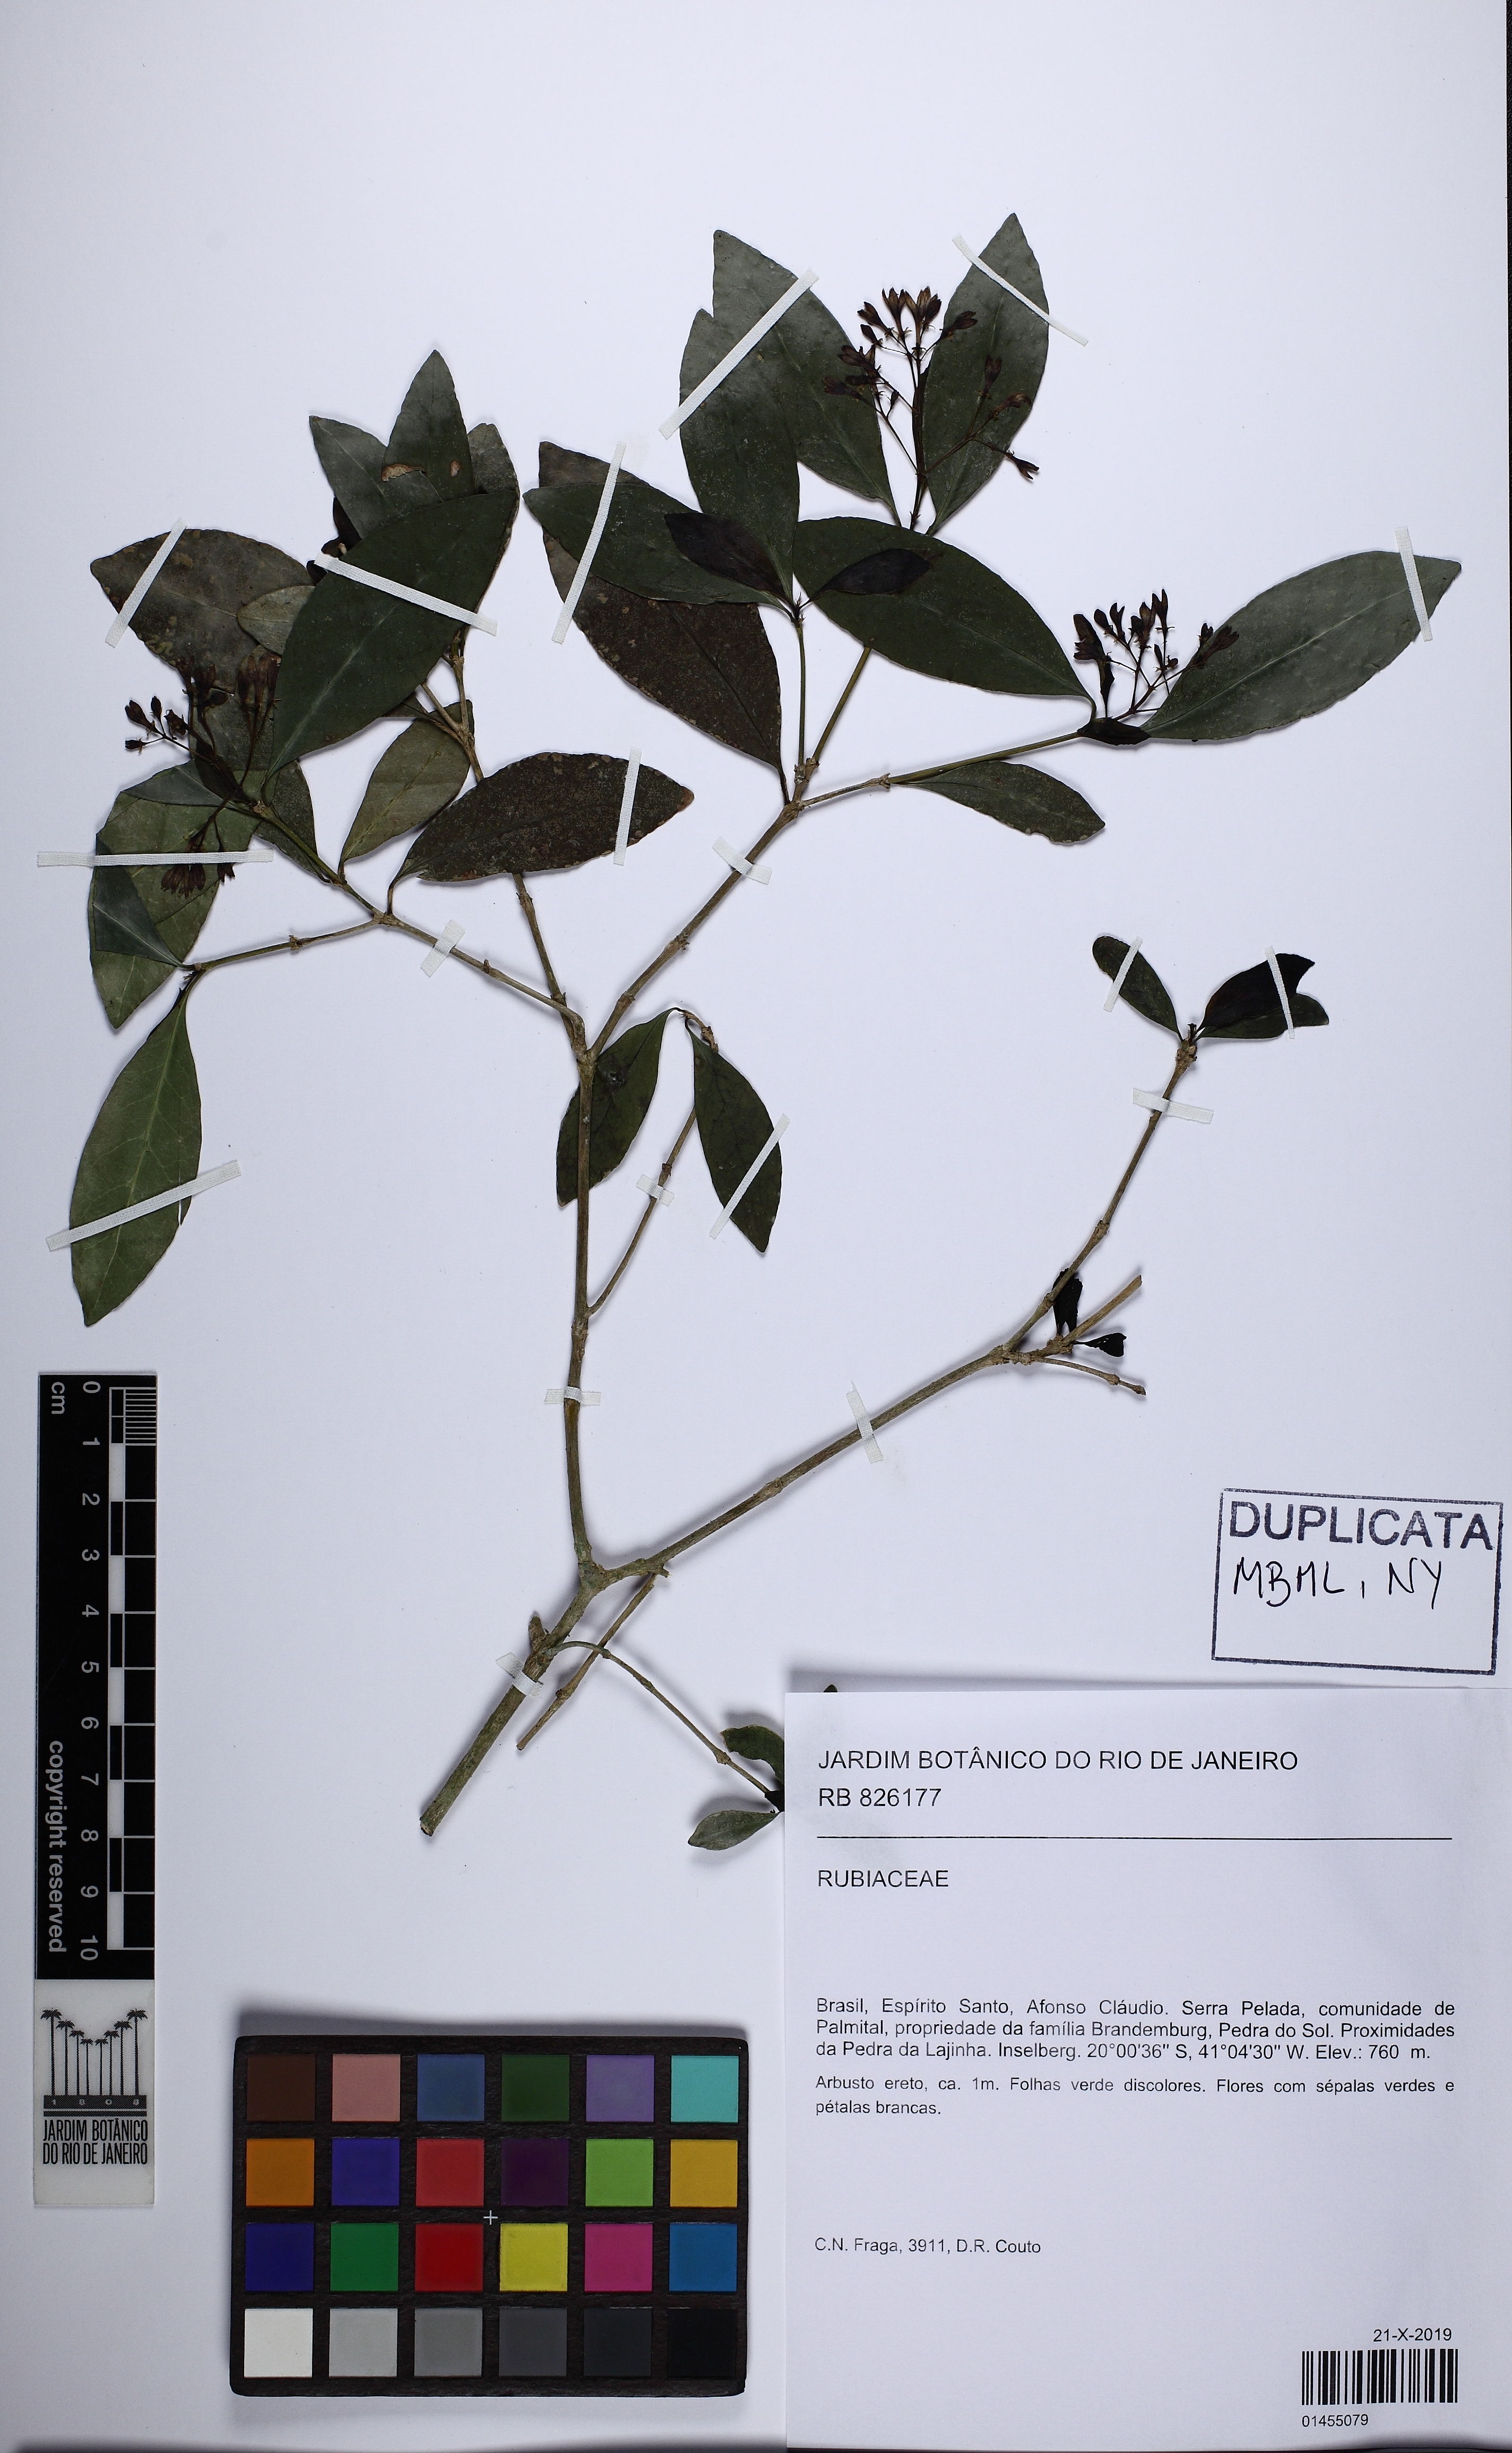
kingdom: Plantae
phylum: Tracheophyta
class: Magnoliopsida
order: Gentianales
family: Rubiaceae
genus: Rudgea
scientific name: Rudgea
